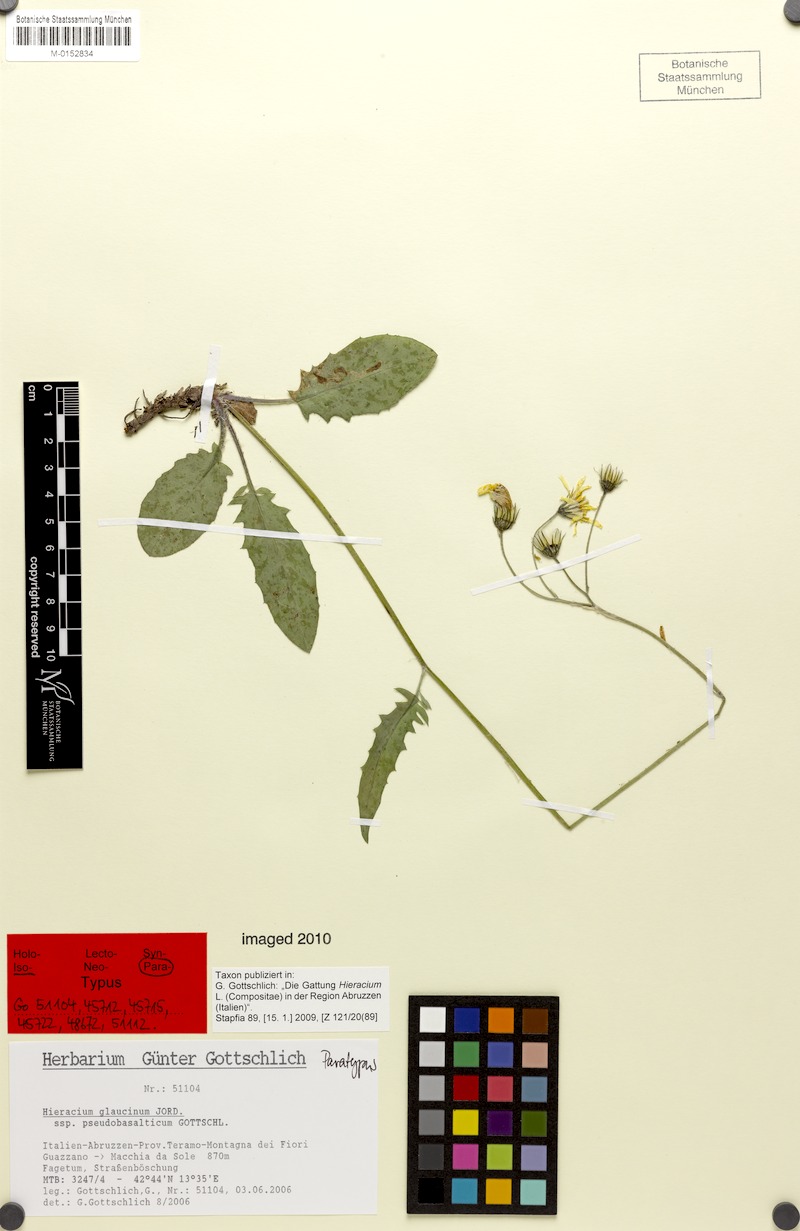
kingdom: Plantae
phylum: Tracheophyta
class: Magnoliopsida
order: Asterales
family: Asteraceae
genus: Hieracium
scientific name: Hieracium glaucinum
